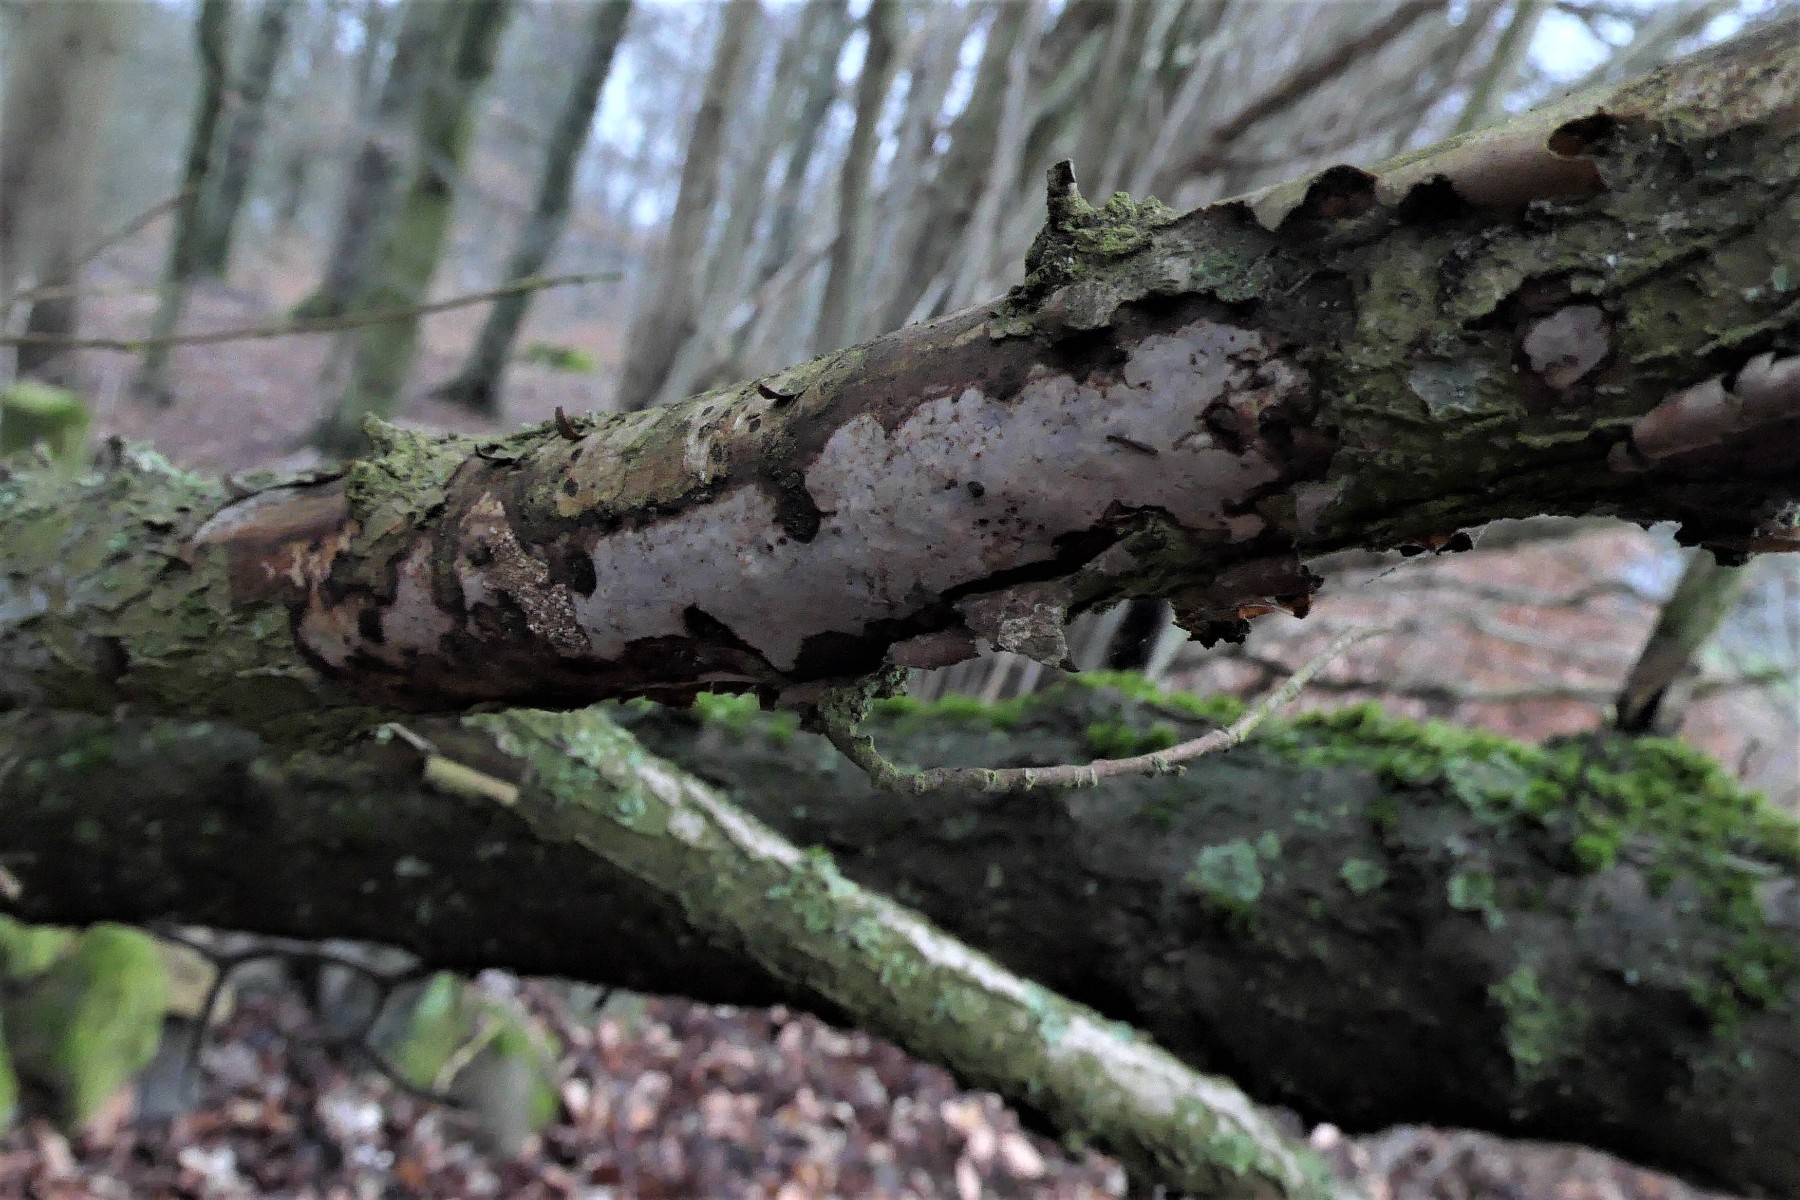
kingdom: Fungi
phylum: Basidiomycota
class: Agaricomycetes
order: Corticiales
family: Vuilleminiaceae
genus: Vuilleminia
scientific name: Vuilleminia coryli
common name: hassel-barksprænger
